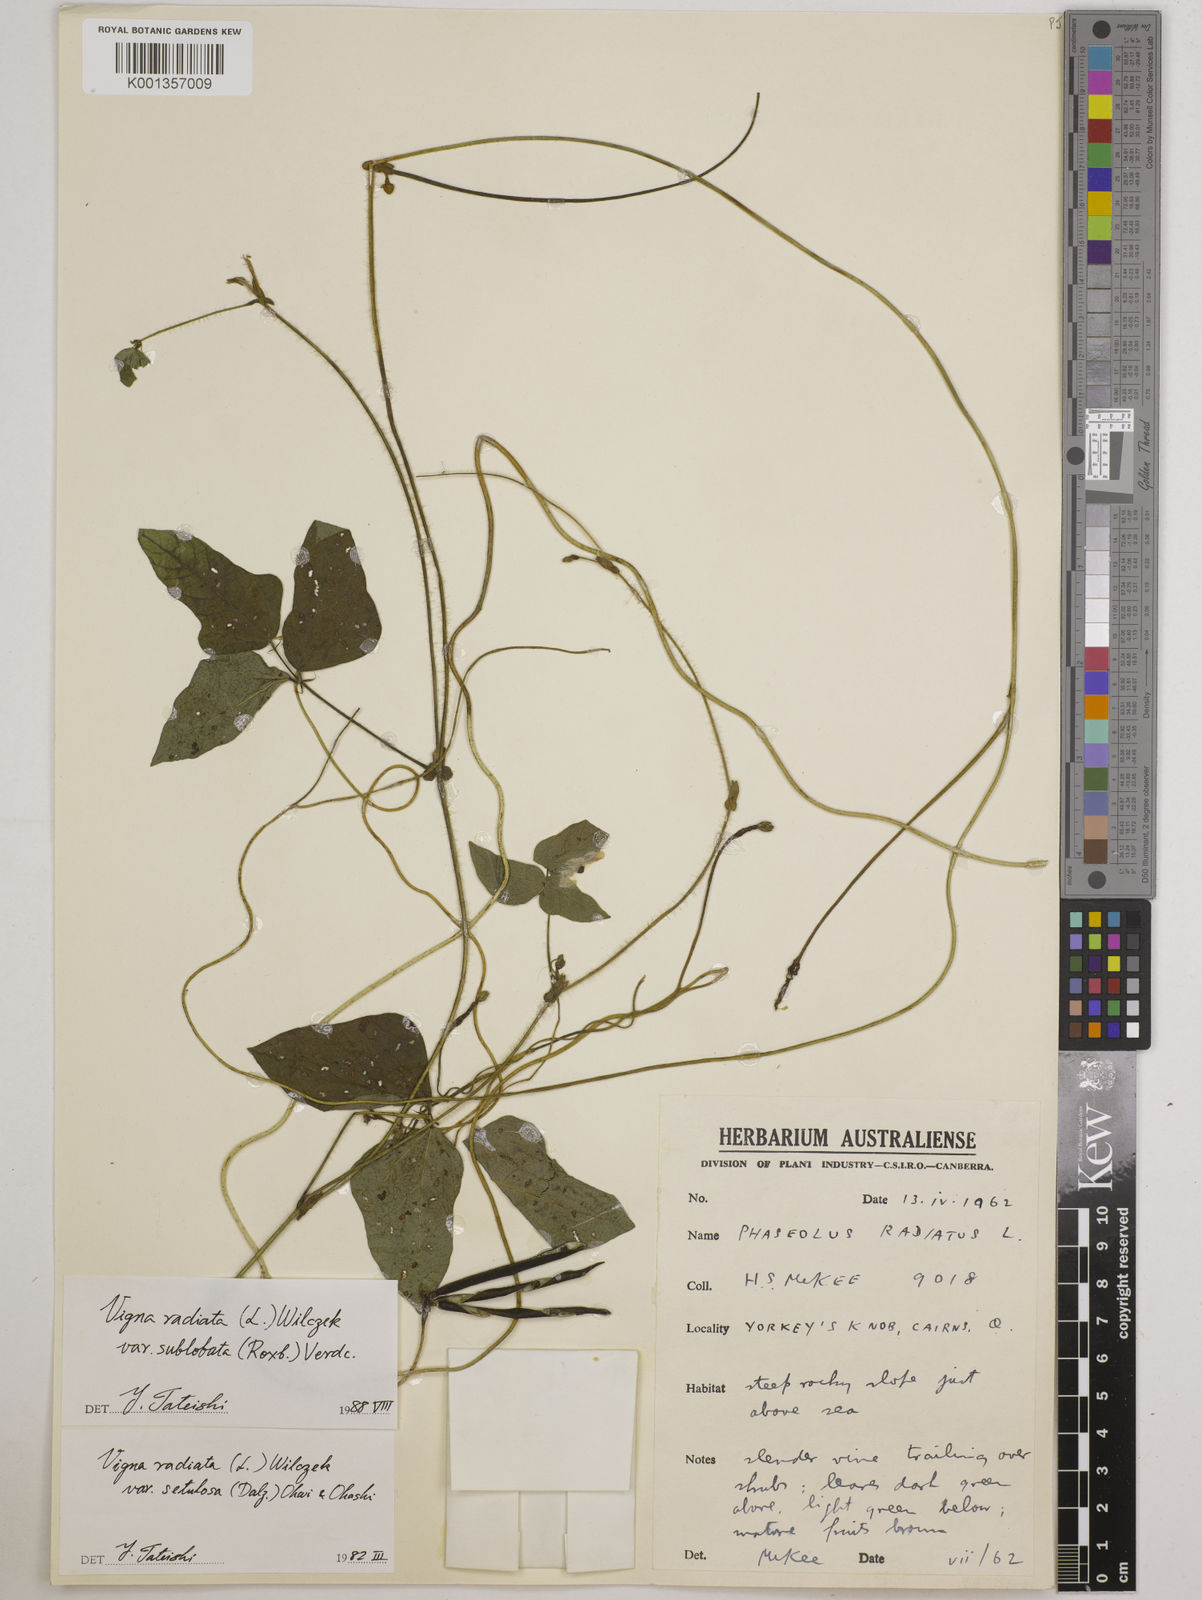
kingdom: Plantae
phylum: Tracheophyta
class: Magnoliopsida
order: Fabales
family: Fabaceae
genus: Vigna
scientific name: Vigna radiata
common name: Mung-bean
